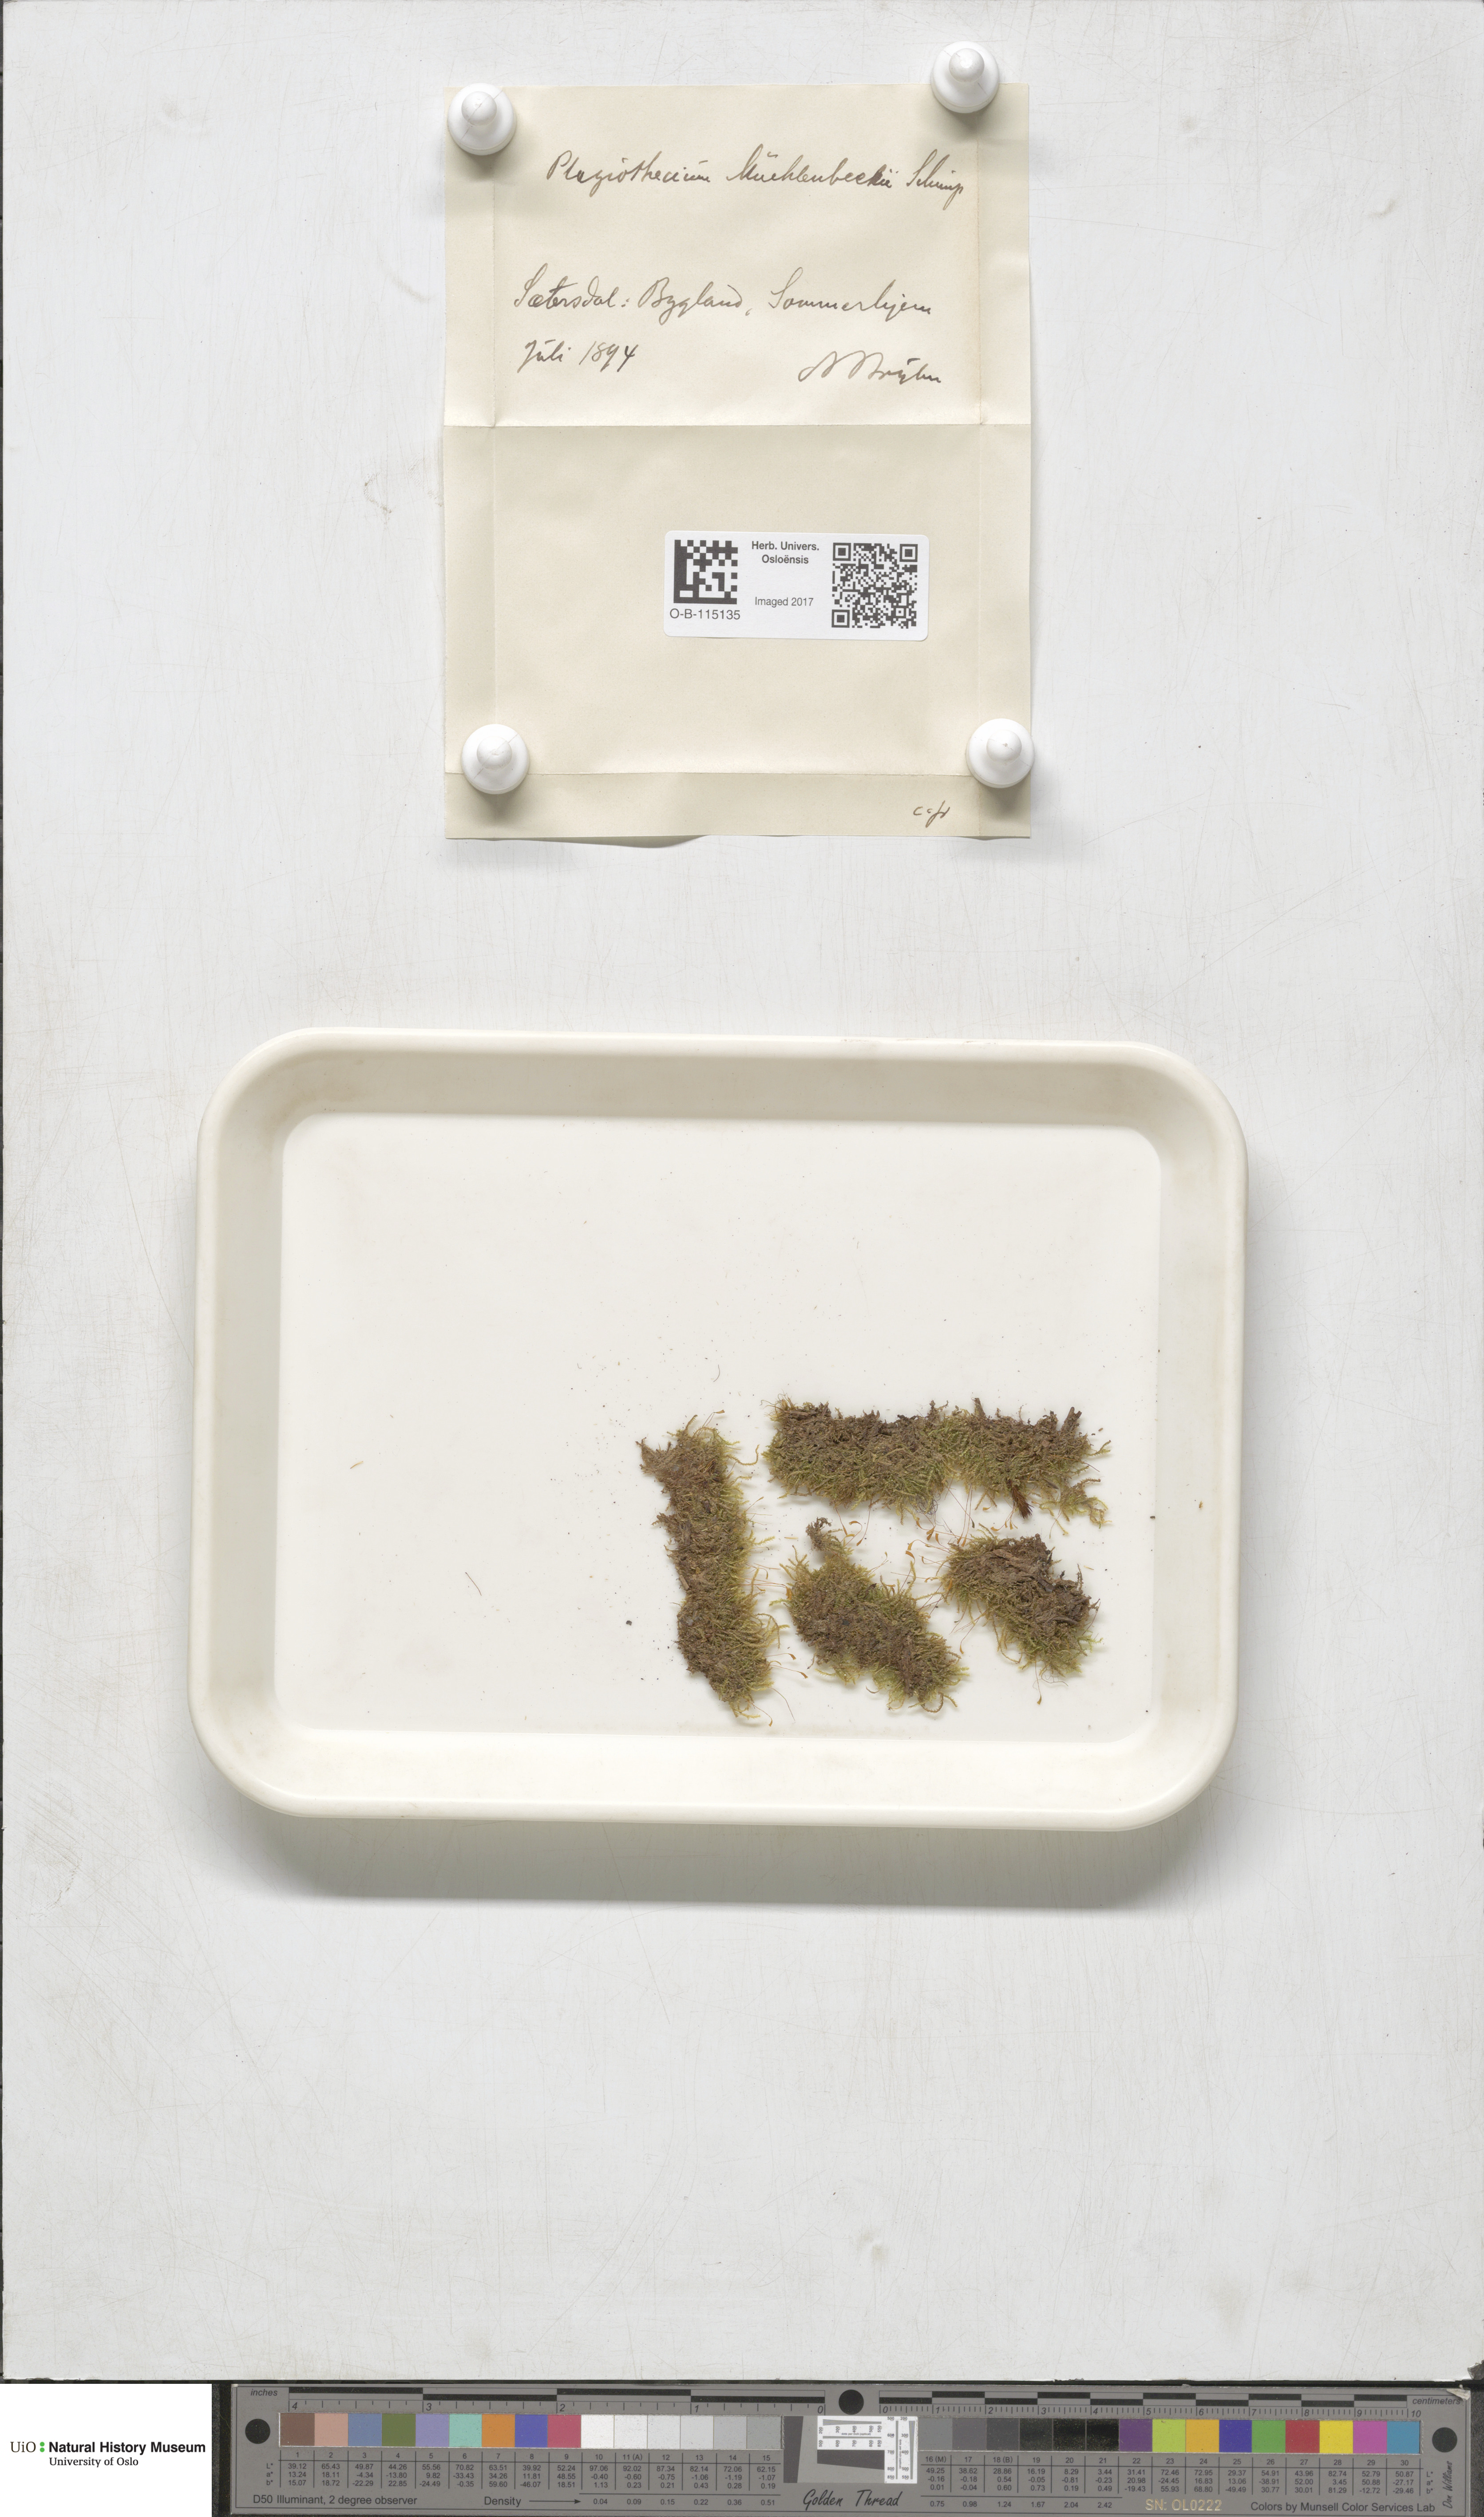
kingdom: Plantae
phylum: Bryophyta
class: Bryopsida
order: Hypnales
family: Plagiotheciaceae
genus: Herzogiella
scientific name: Herzogiella striatella
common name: Muhlenbeck's feather-moss
